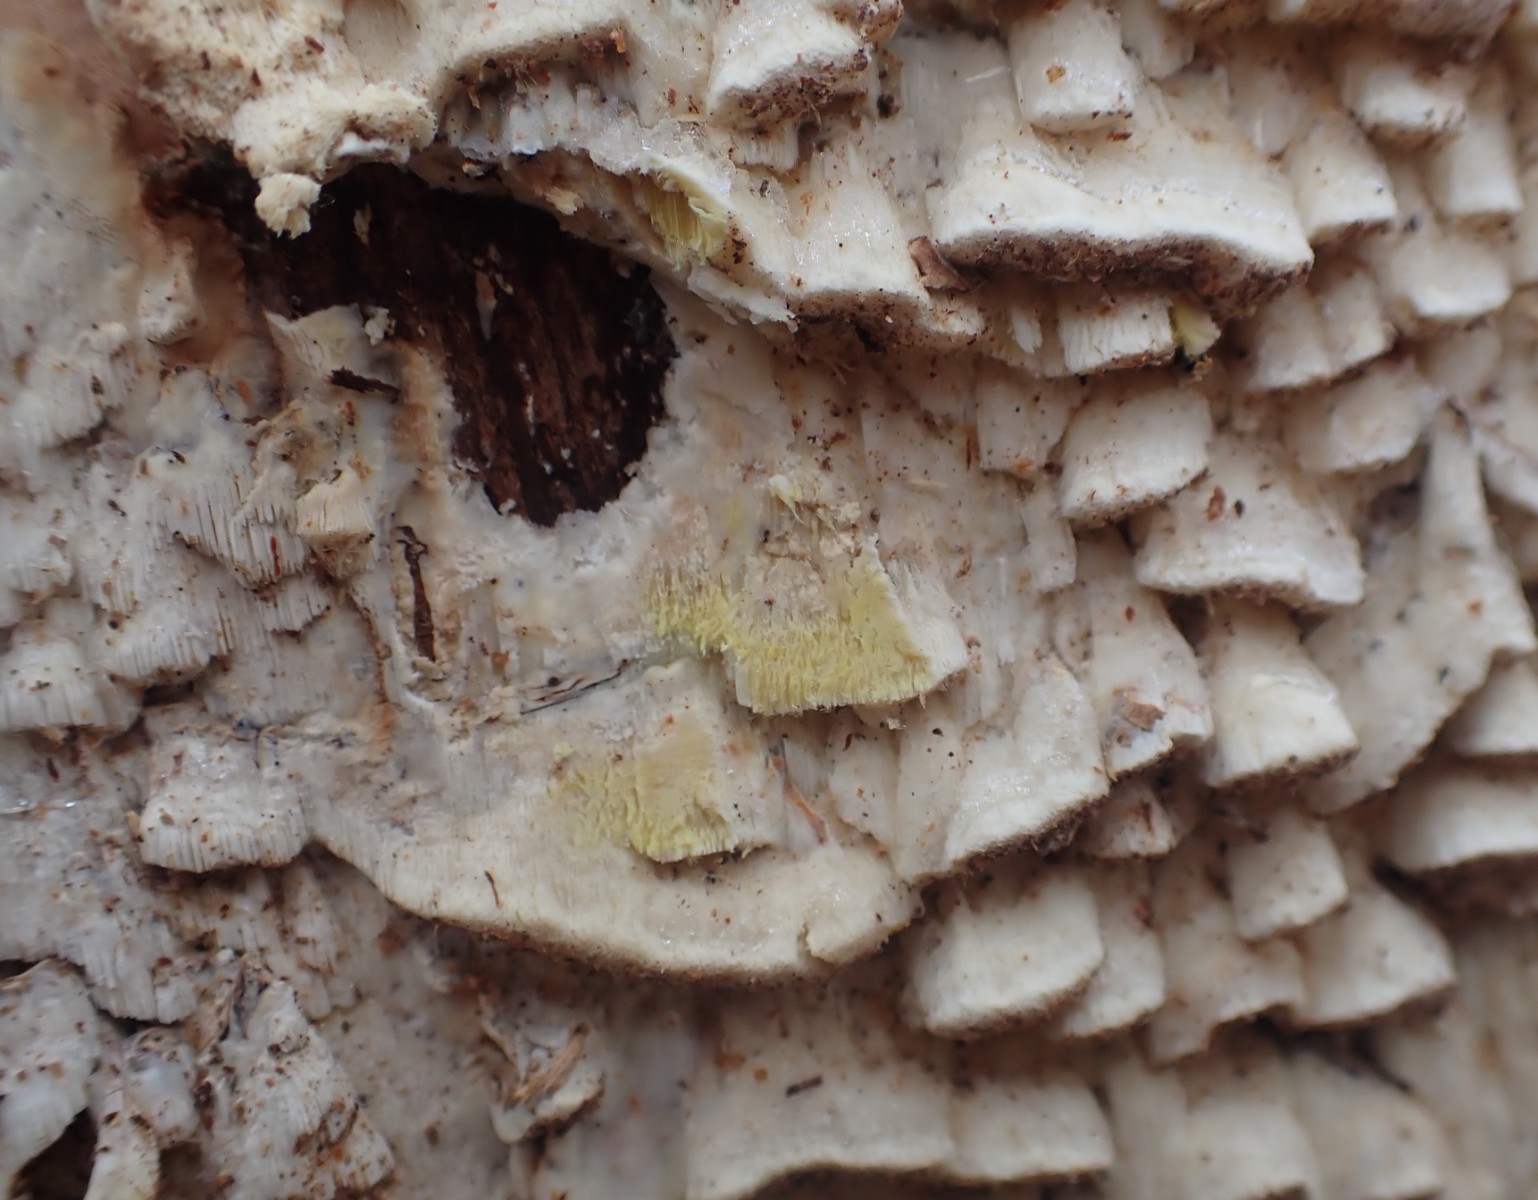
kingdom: Fungi
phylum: Basidiomycota
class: Agaricomycetes
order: Polyporales
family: Fomitopsidaceae
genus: Daedalea
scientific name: Daedalea xantha
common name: gul sejporesvamp
